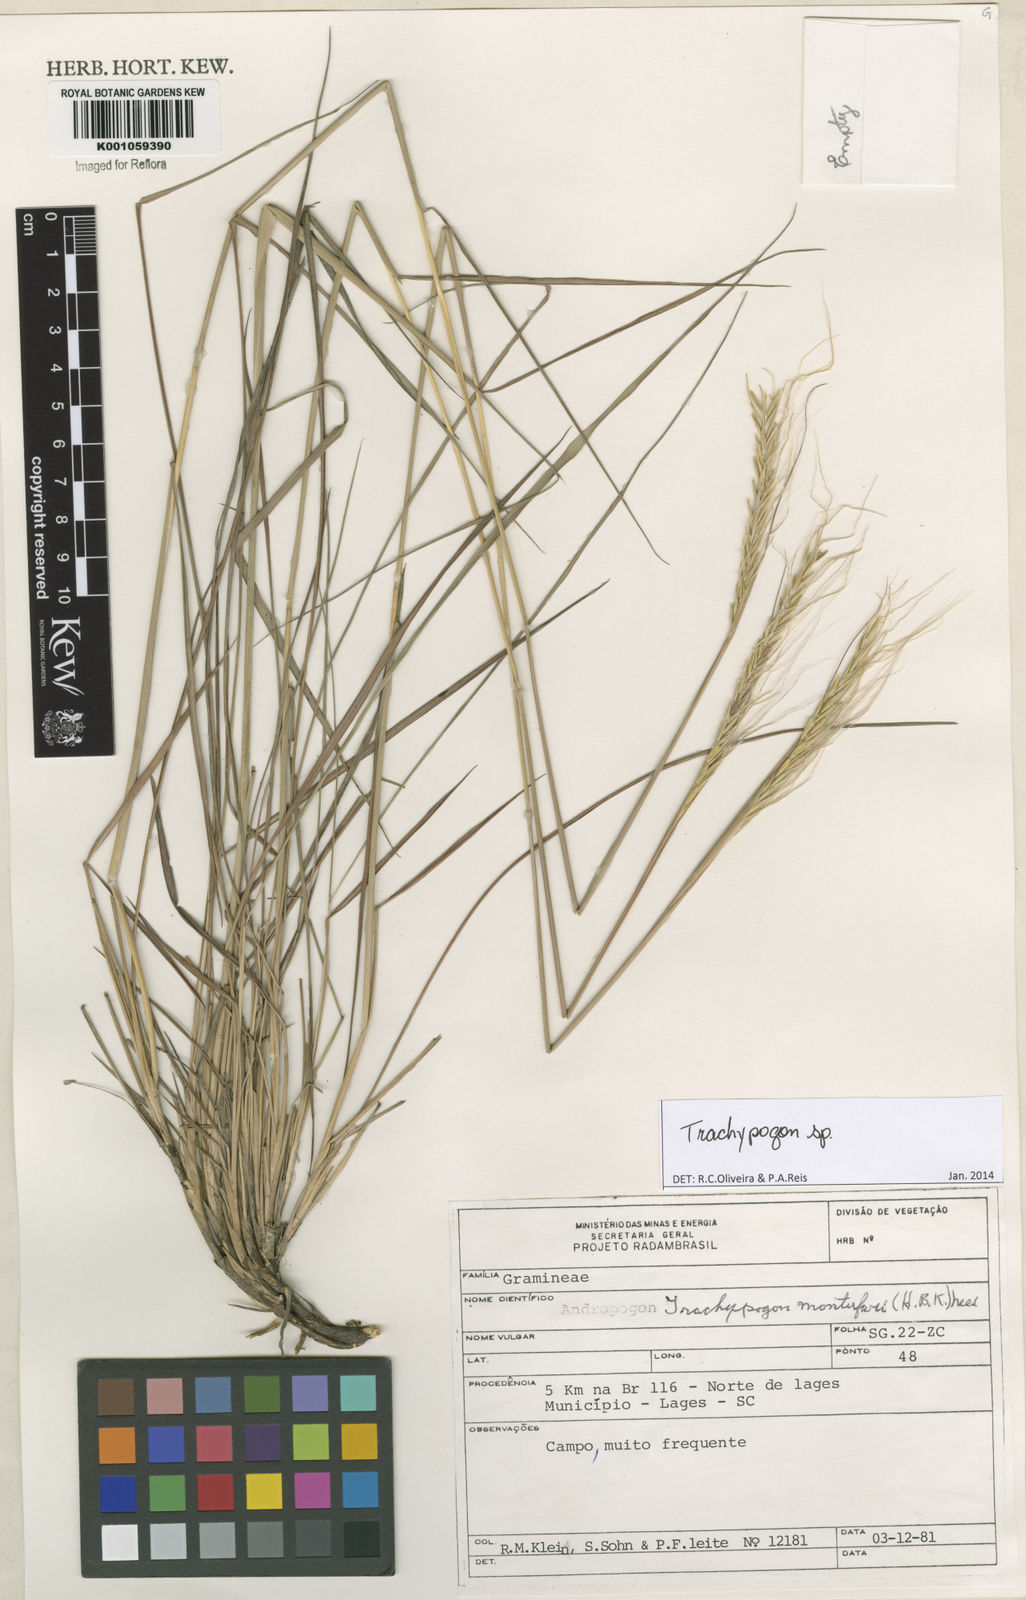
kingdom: Plantae
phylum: Tracheophyta
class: Liliopsida
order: Poales
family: Poaceae
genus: Trachypogon
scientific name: Trachypogon
